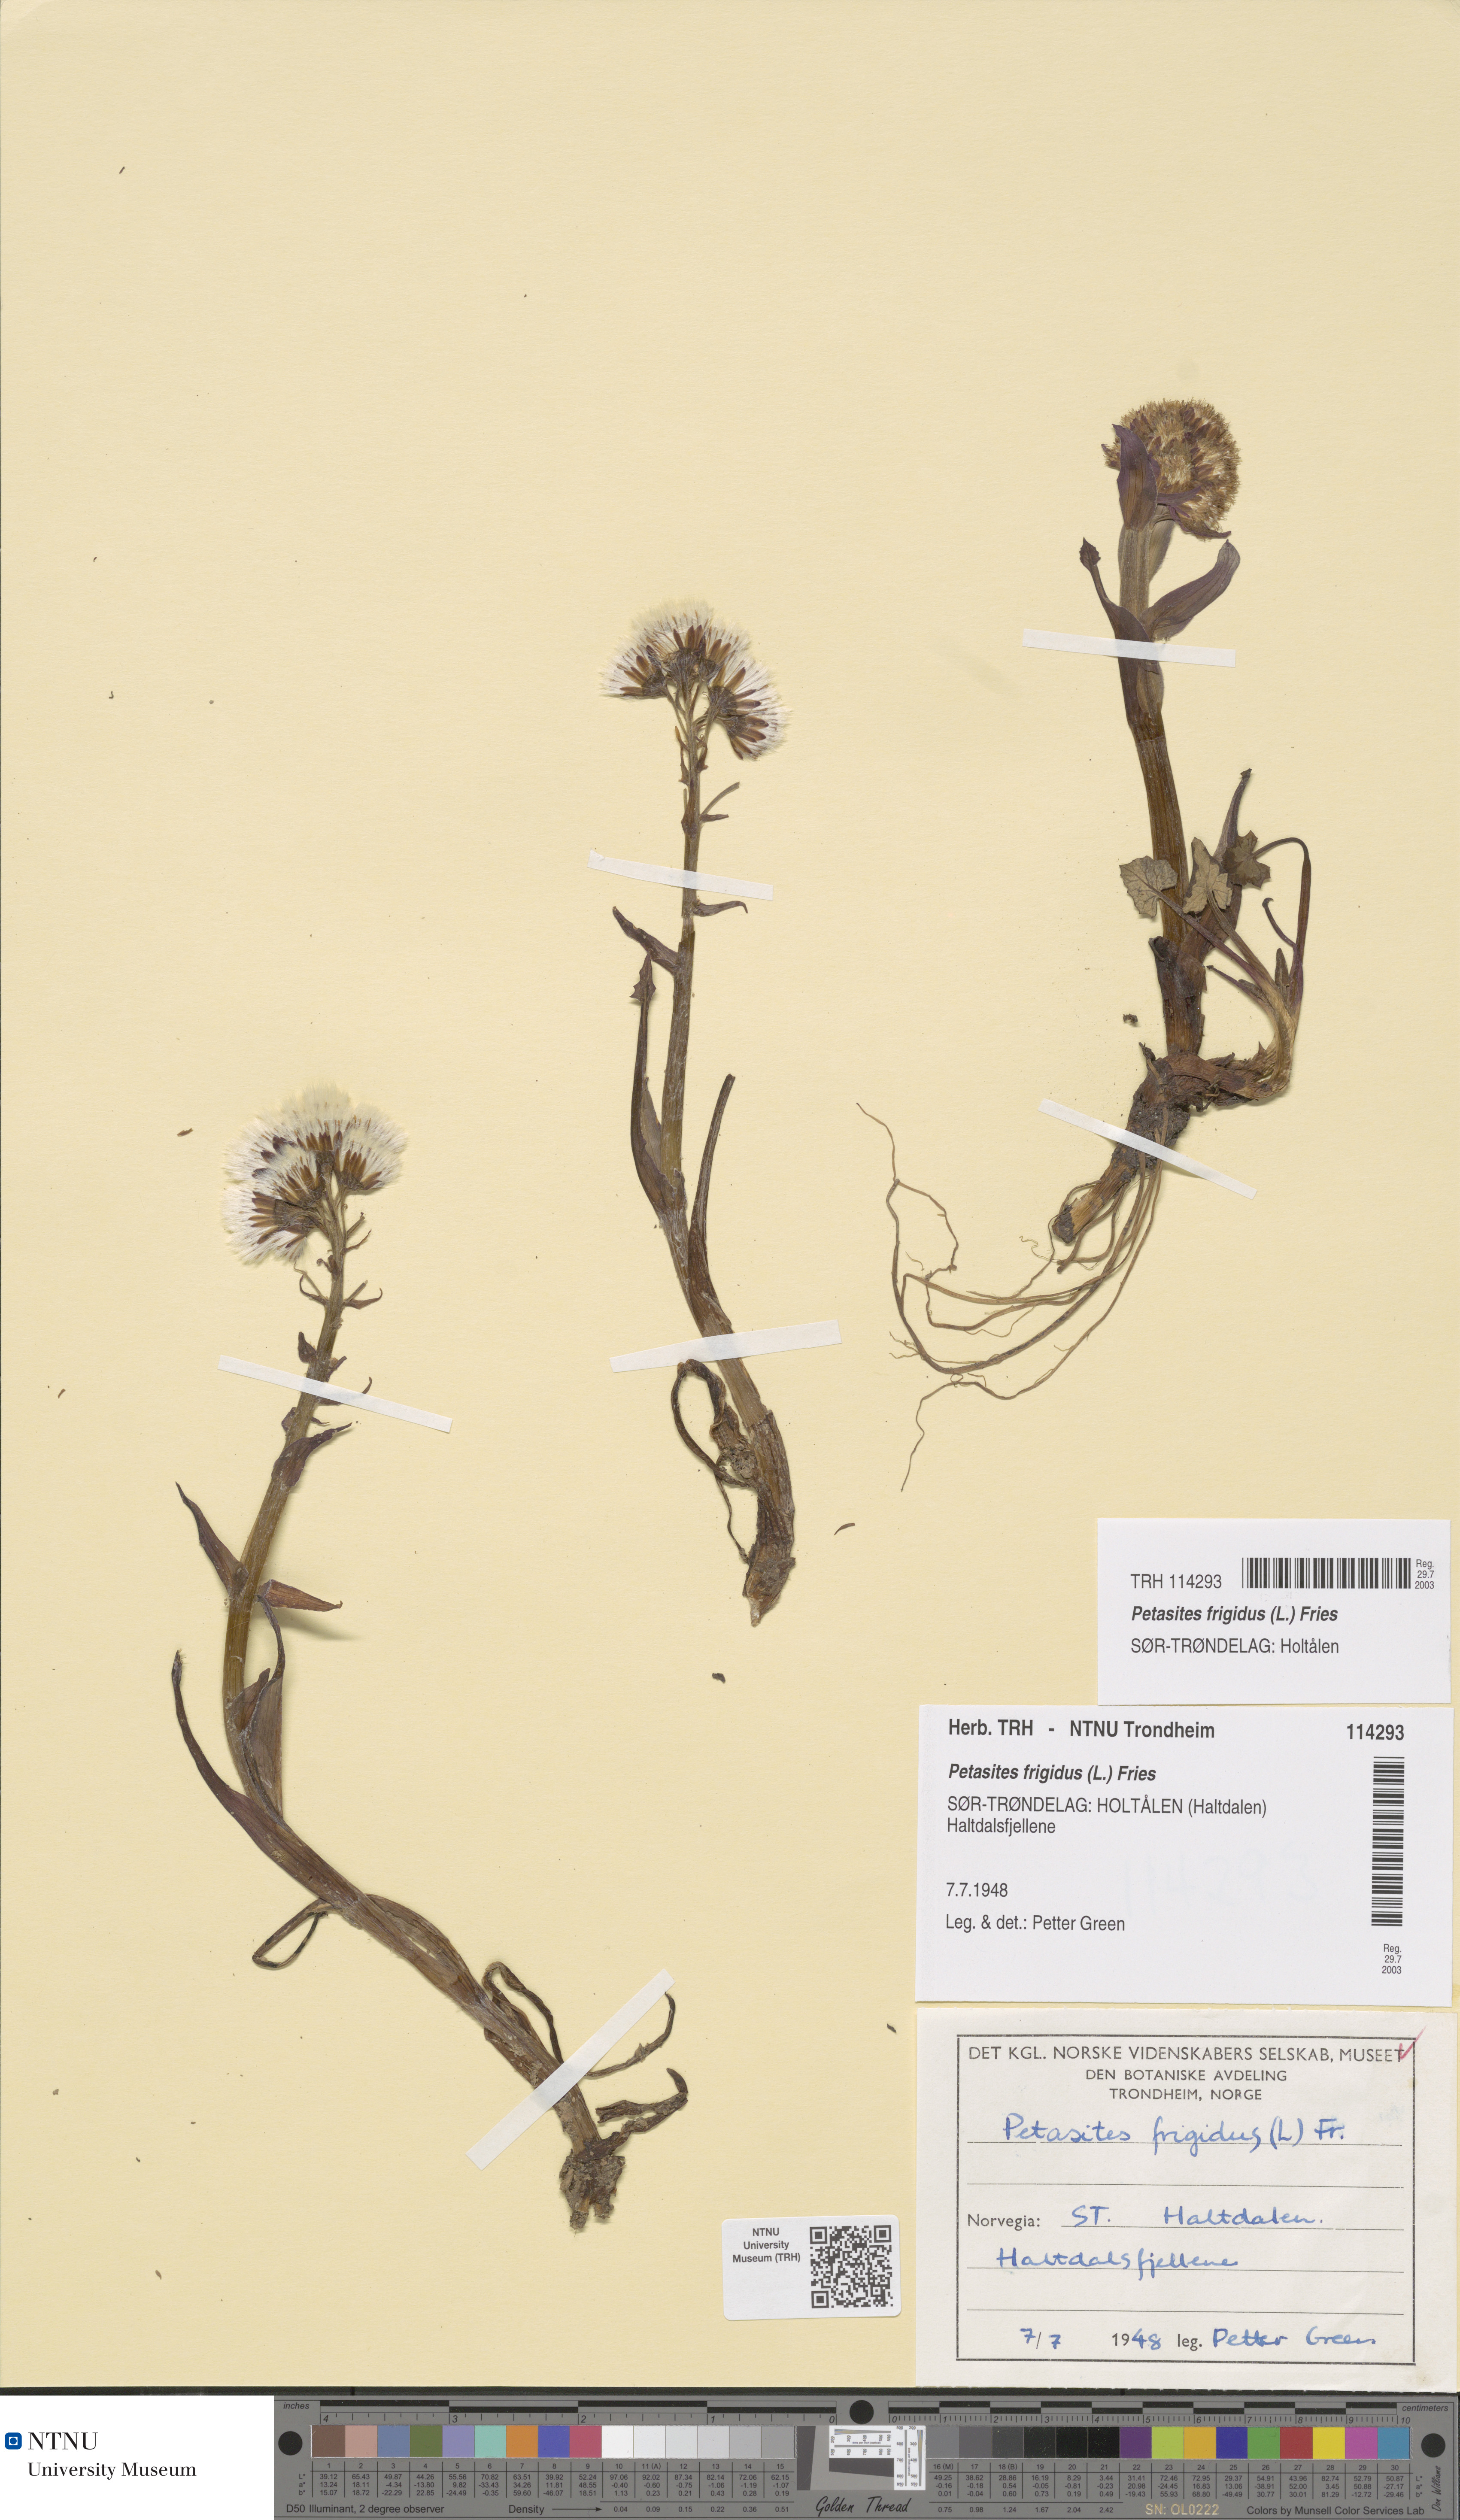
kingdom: Plantae
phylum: Tracheophyta
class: Magnoliopsida
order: Asterales
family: Asteraceae
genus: Petasites
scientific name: Petasites frigidus
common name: Arctic butterbur
